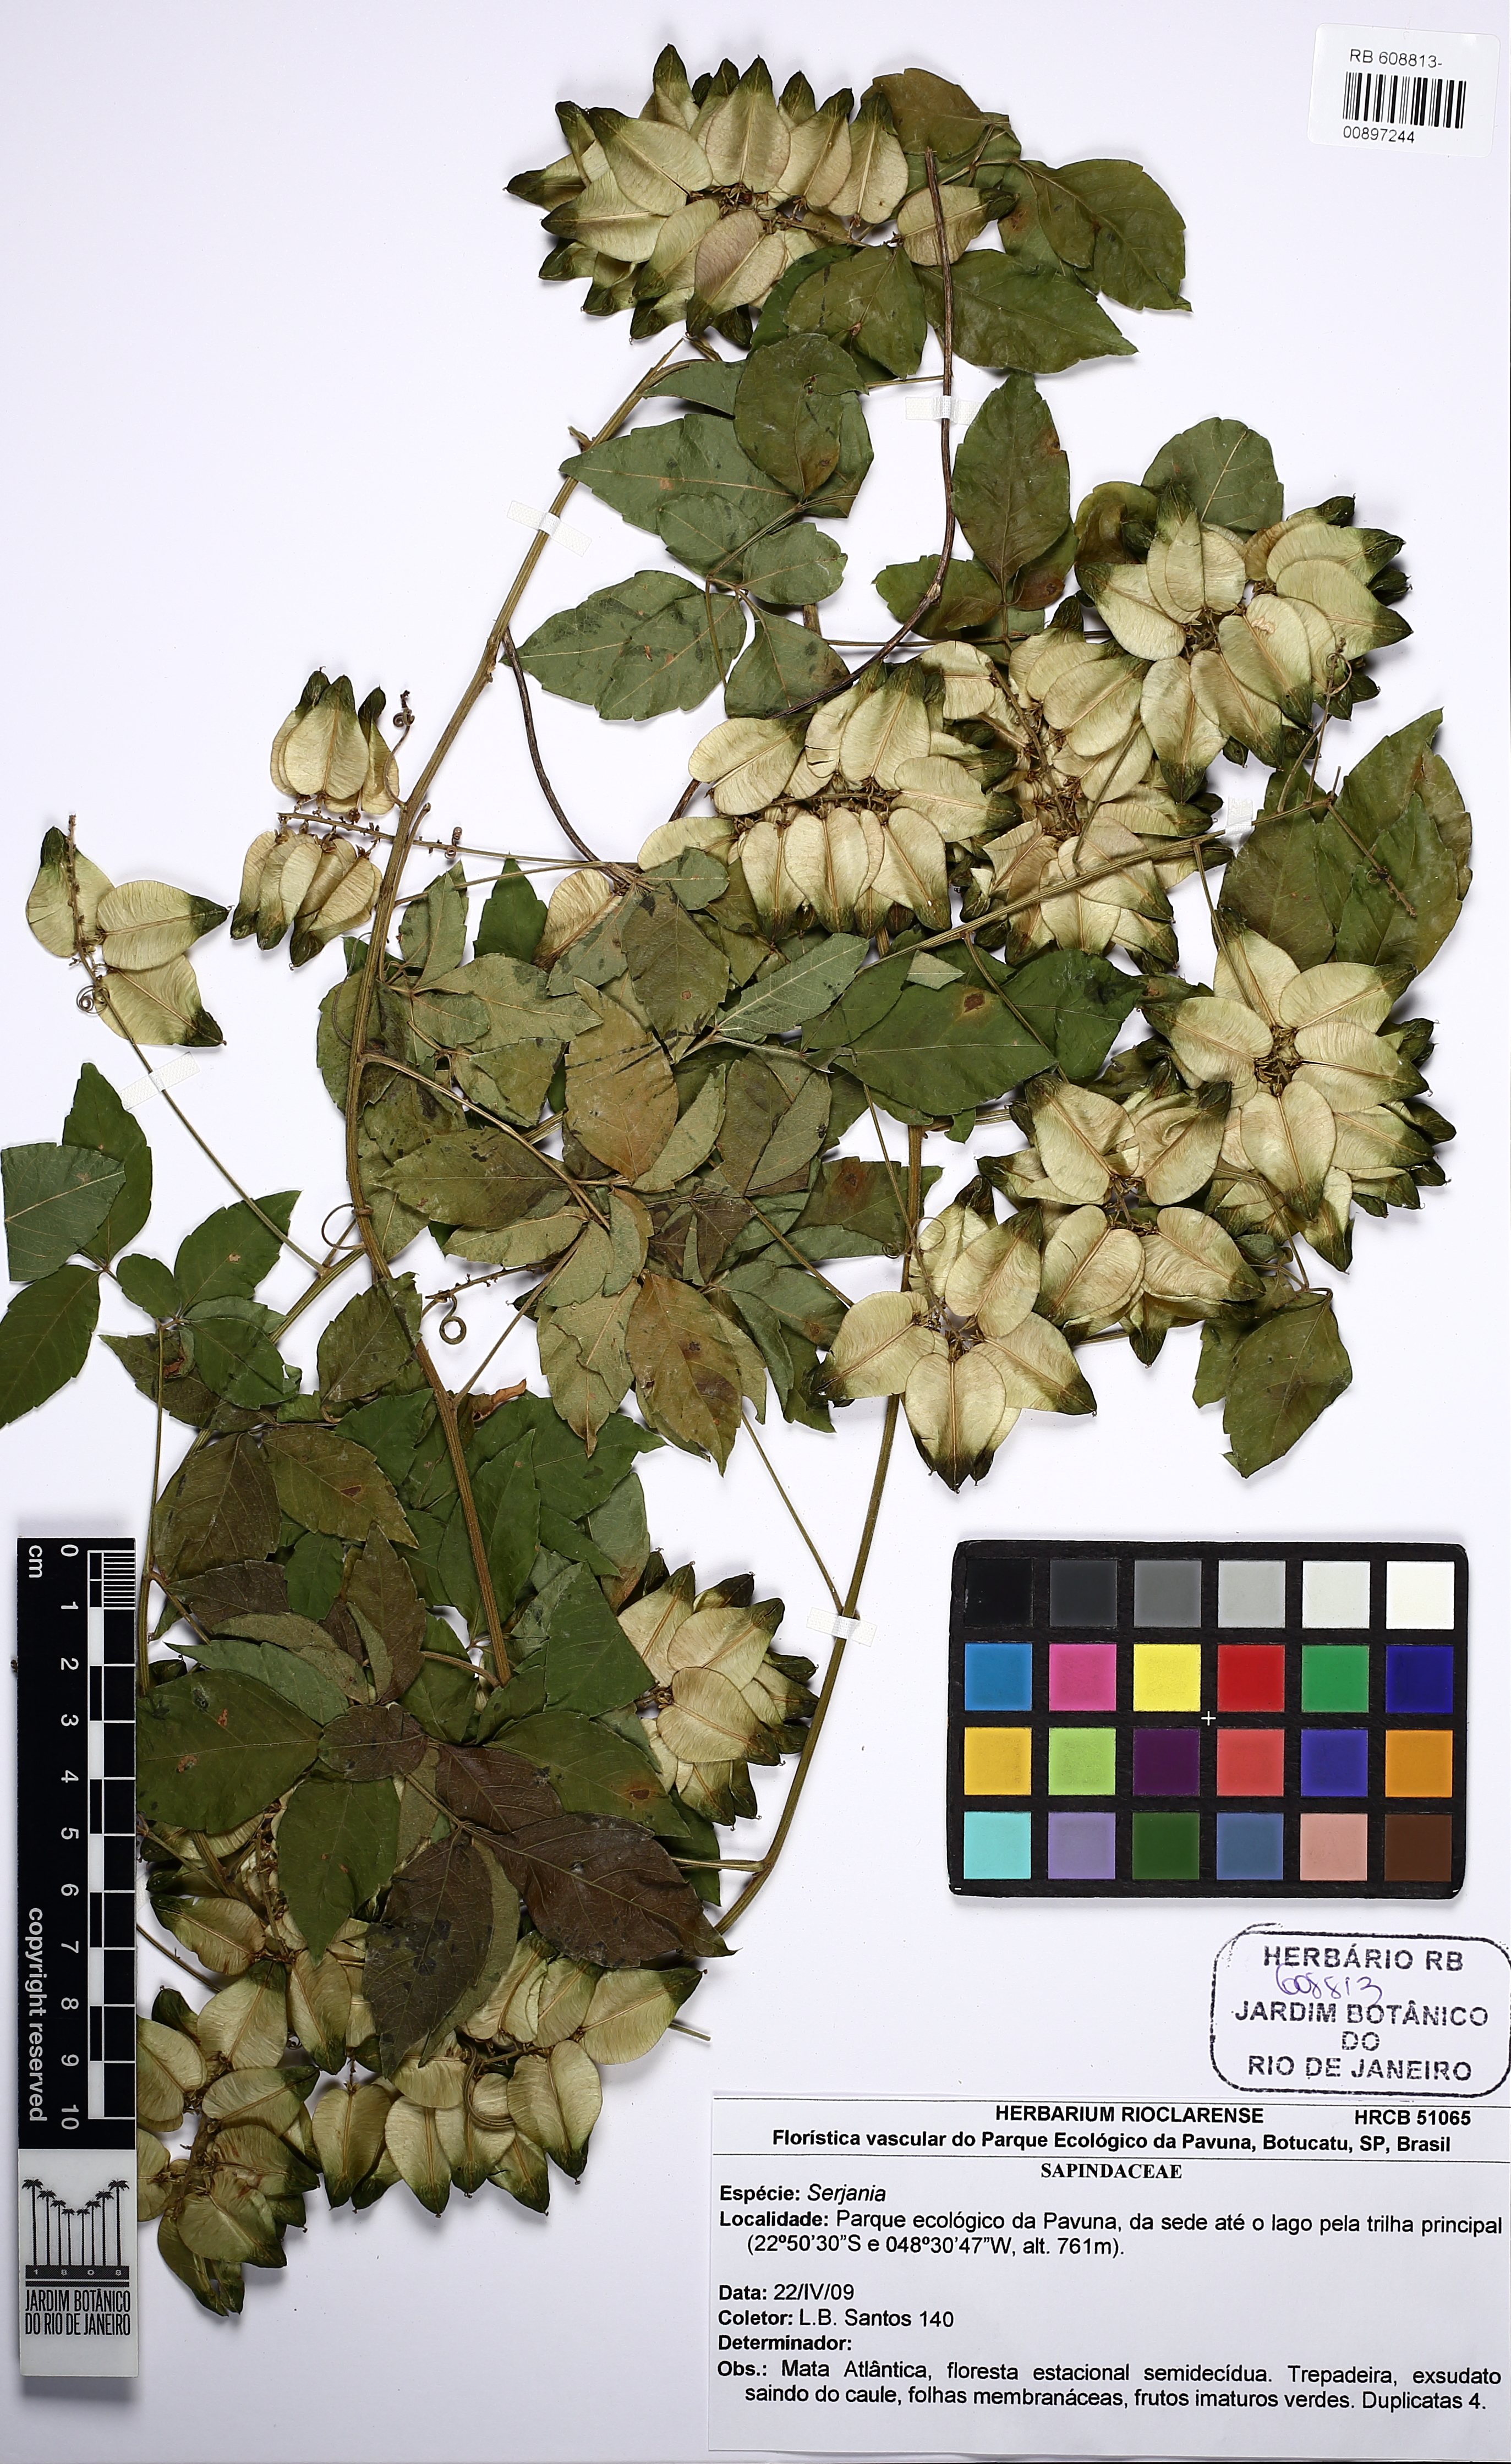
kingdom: Plantae
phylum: Tracheophyta
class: Magnoliopsida
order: Sapindales
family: Sapindaceae
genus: Serjania
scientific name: Serjania meridionalis
